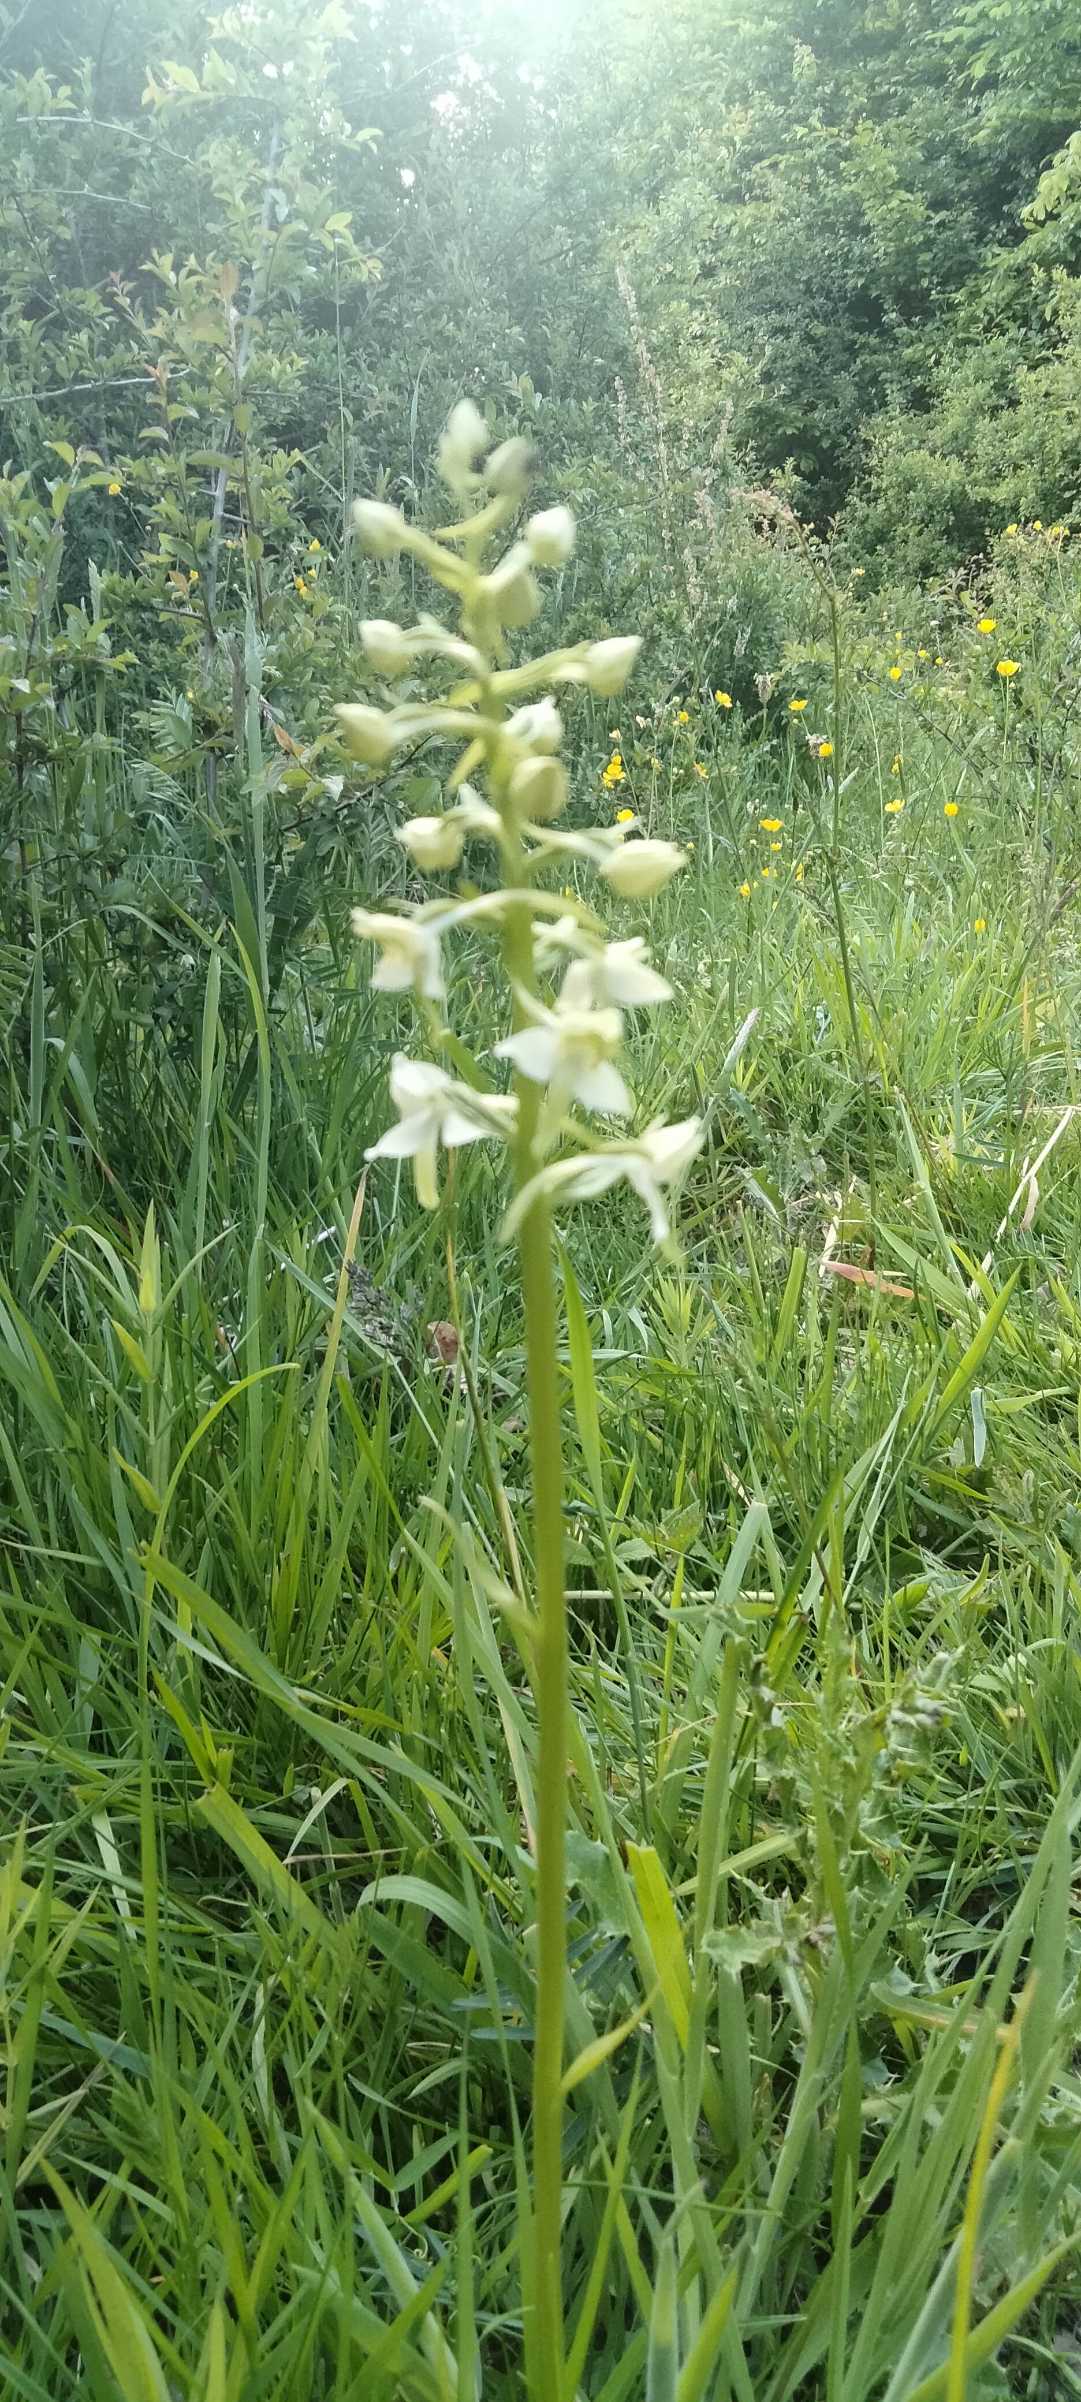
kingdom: Plantae
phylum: Tracheophyta
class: Liliopsida
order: Asparagales
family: Orchidaceae
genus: Platanthera
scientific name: Platanthera chlorantha
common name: Skov-gøgelilje
